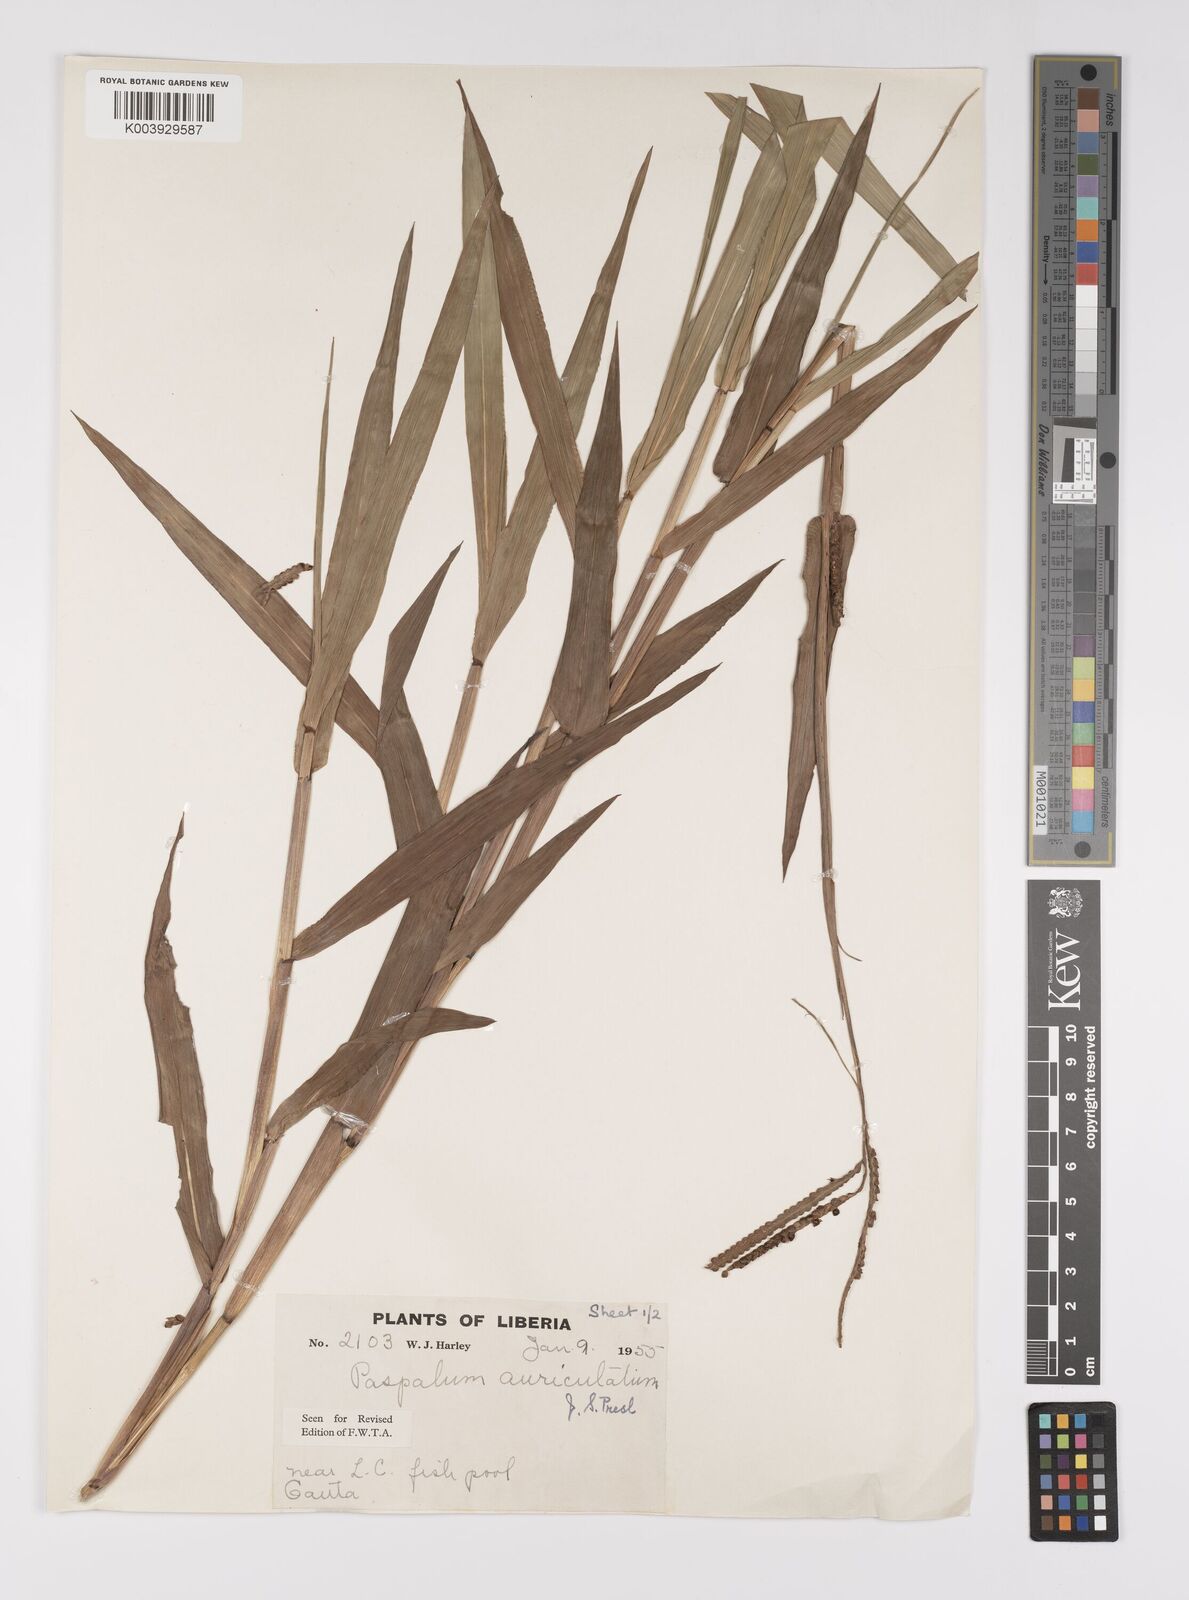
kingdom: Plantae
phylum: Tracheophyta
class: Liliopsida
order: Poales
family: Poaceae
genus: Paspalum
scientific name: Paspalum lamprocaryon
